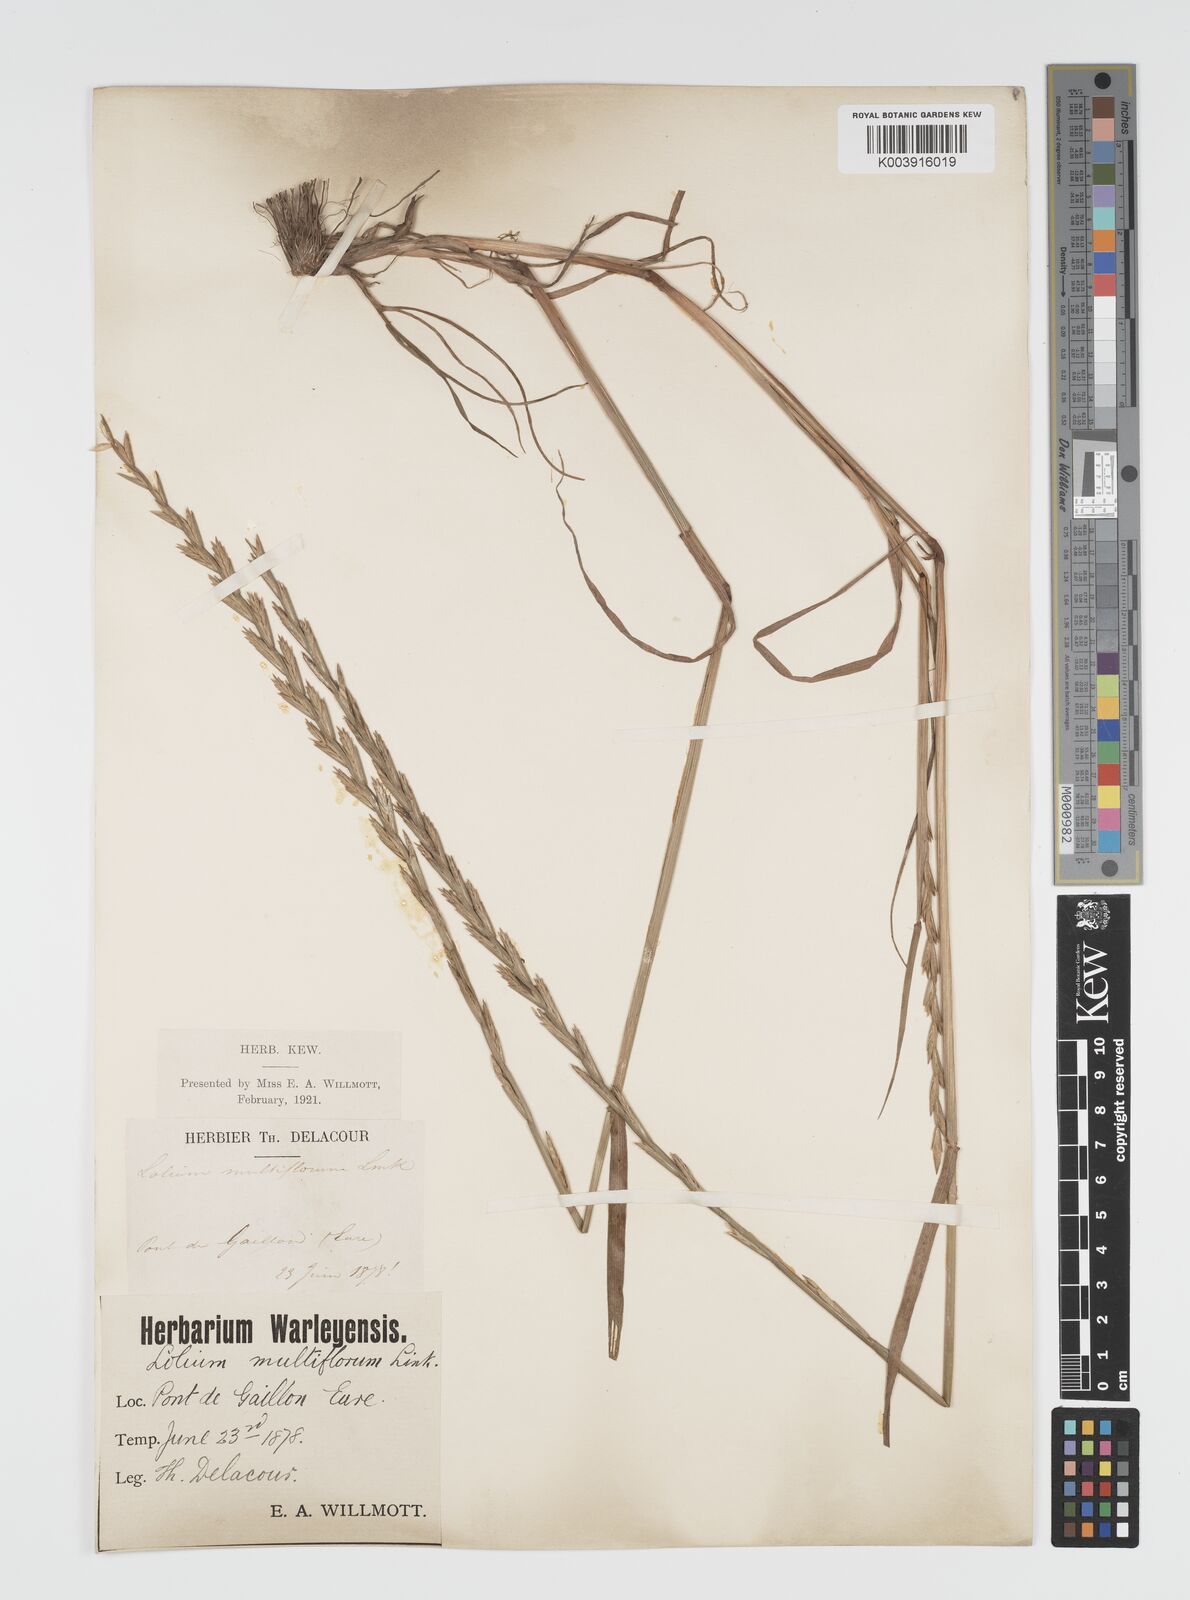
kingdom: Plantae
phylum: Tracheophyta
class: Liliopsida
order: Poales
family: Poaceae
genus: Lolium
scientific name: Lolium multiflorum
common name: Annual ryegrass
